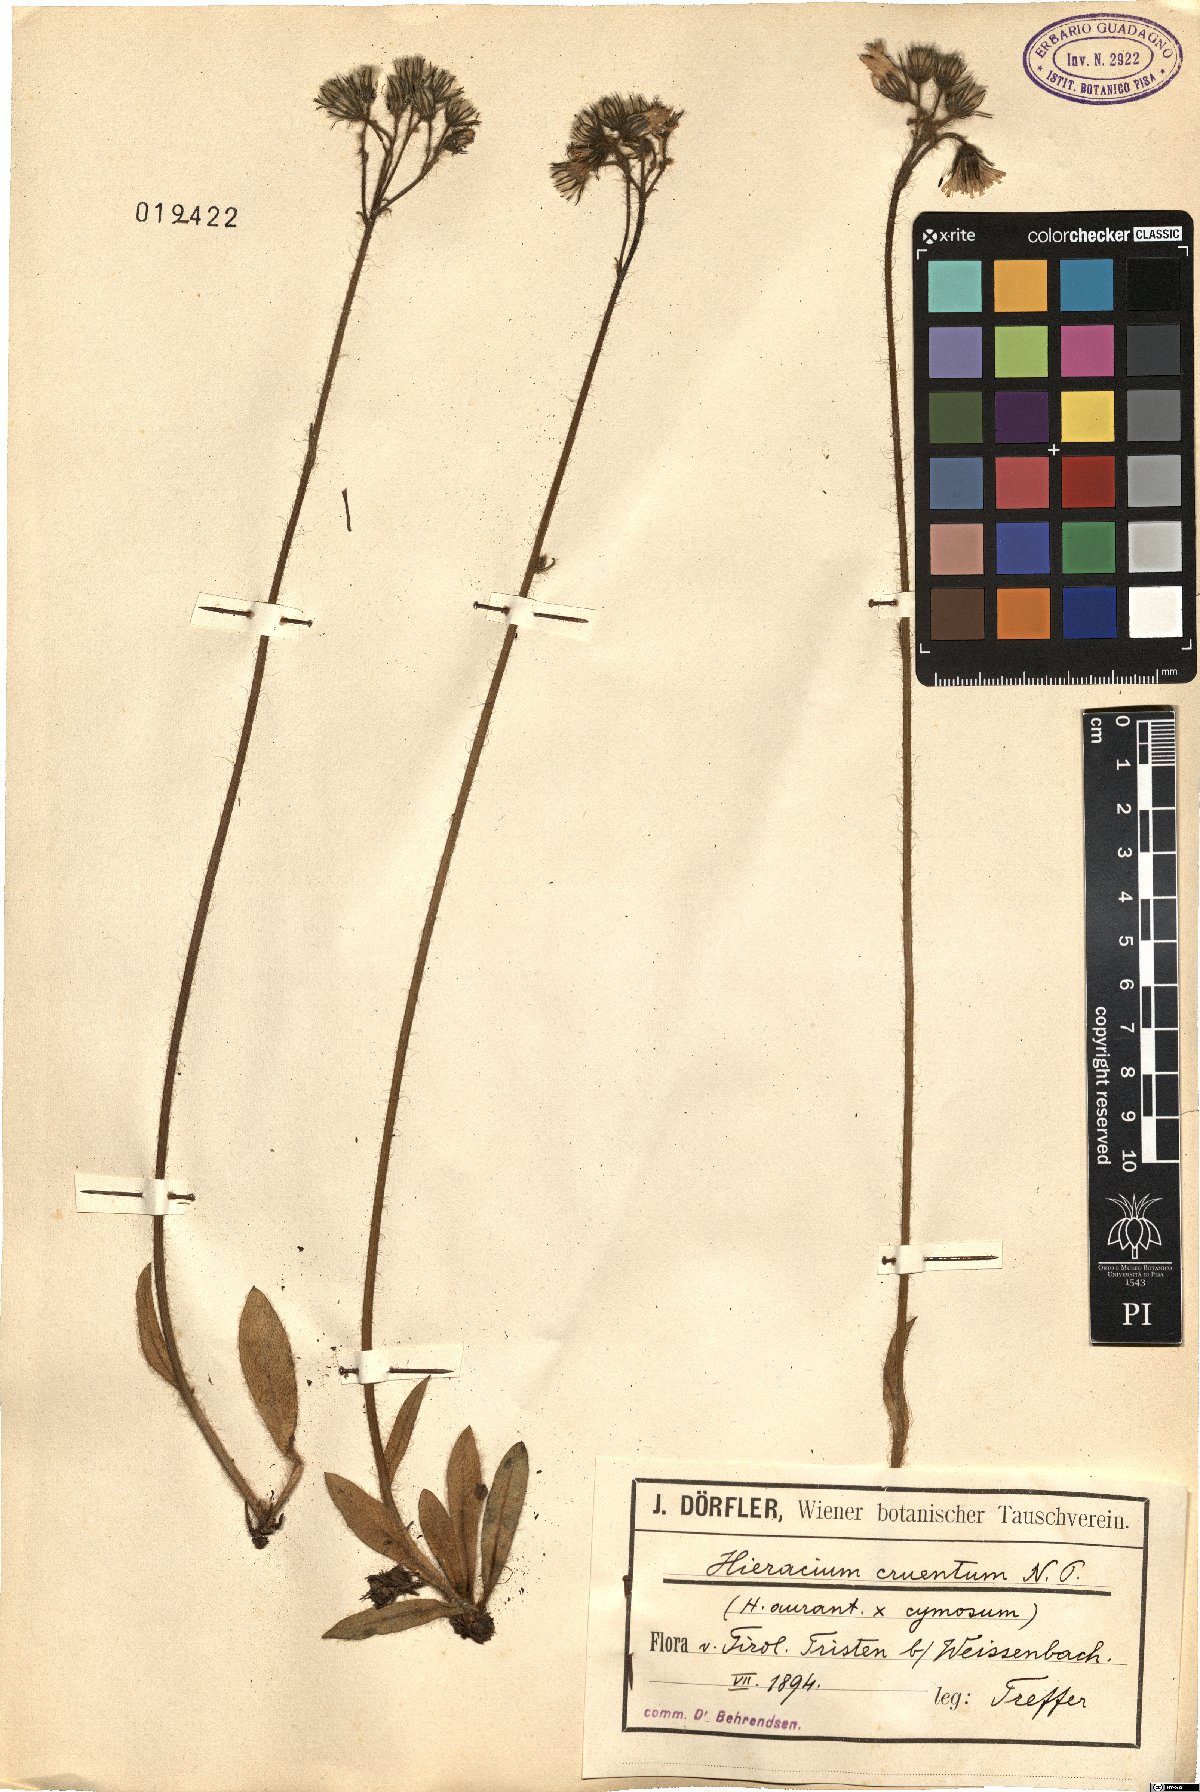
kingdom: Plantae
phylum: Tracheophyta
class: Magnoliopsida
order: Asterales
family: Asteraceae
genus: Pilosella
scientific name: Pilosella guthnikiana
